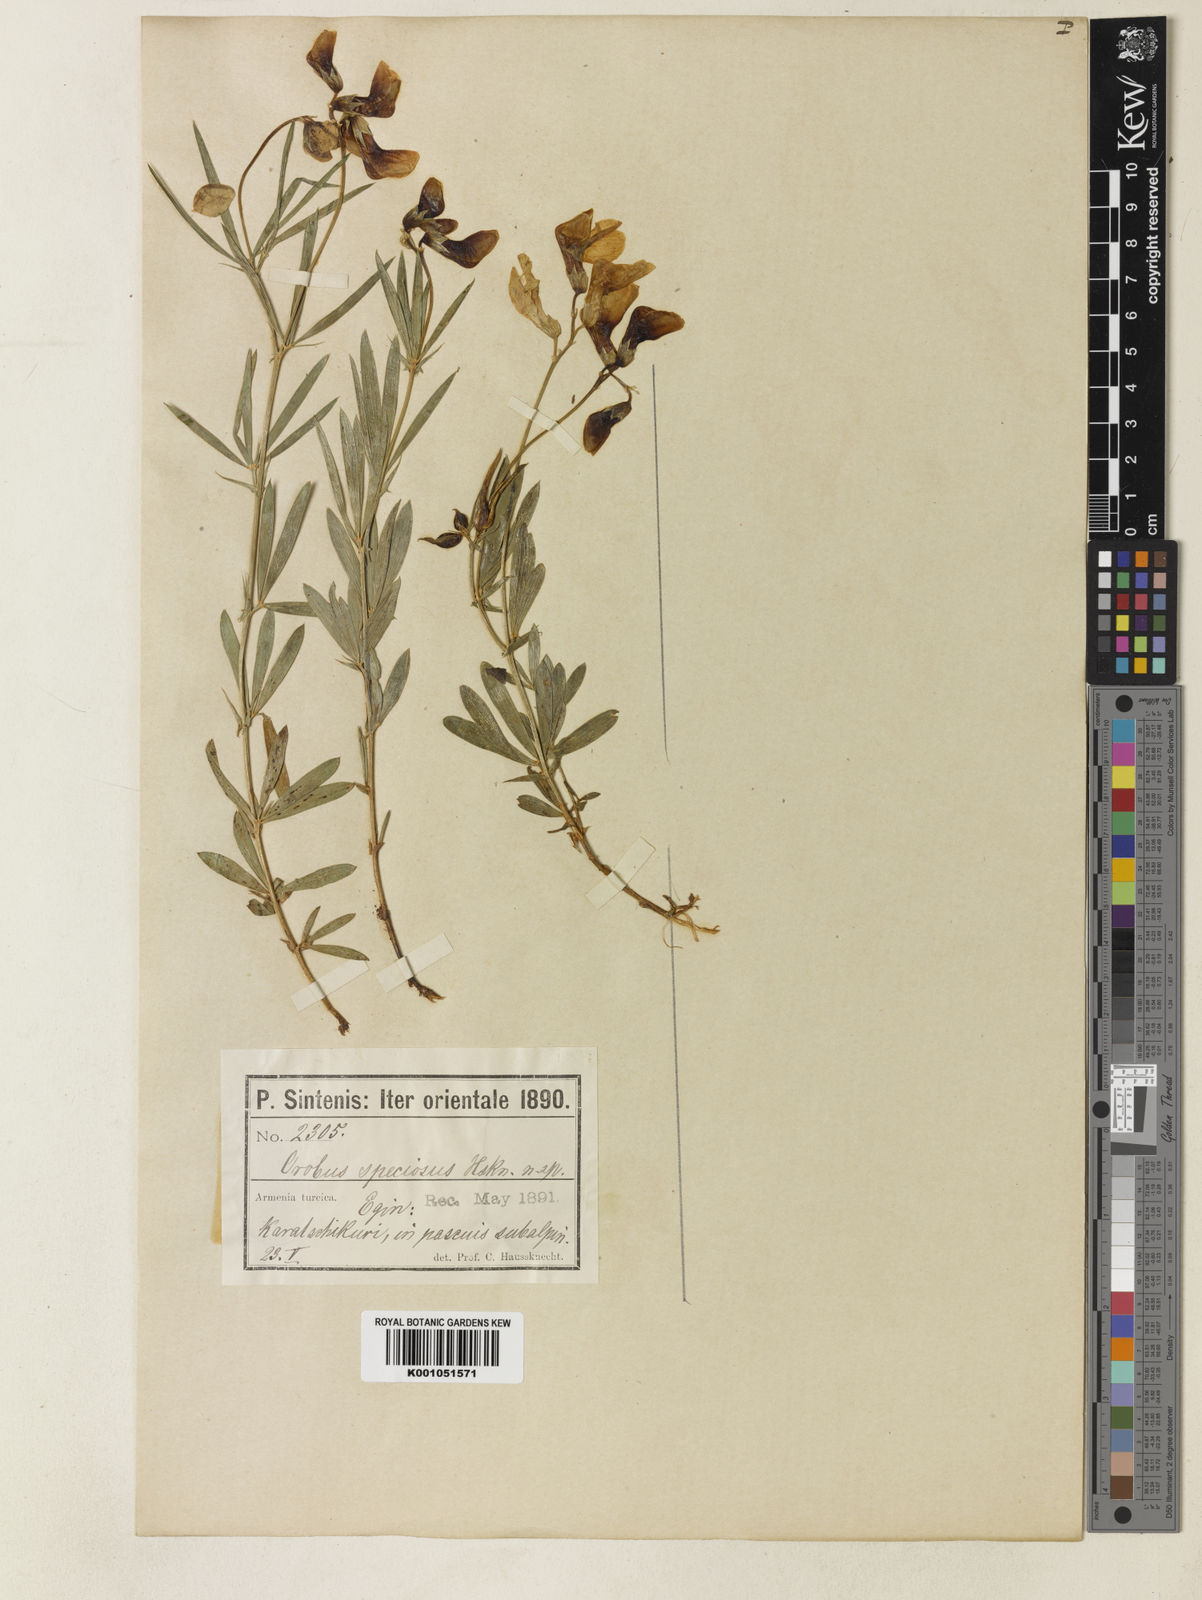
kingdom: Plantae
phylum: Tracheophyta
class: Magnoliopsida
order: Fabales
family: Fabaceae
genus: Lathyrus
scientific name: Lathyrus
